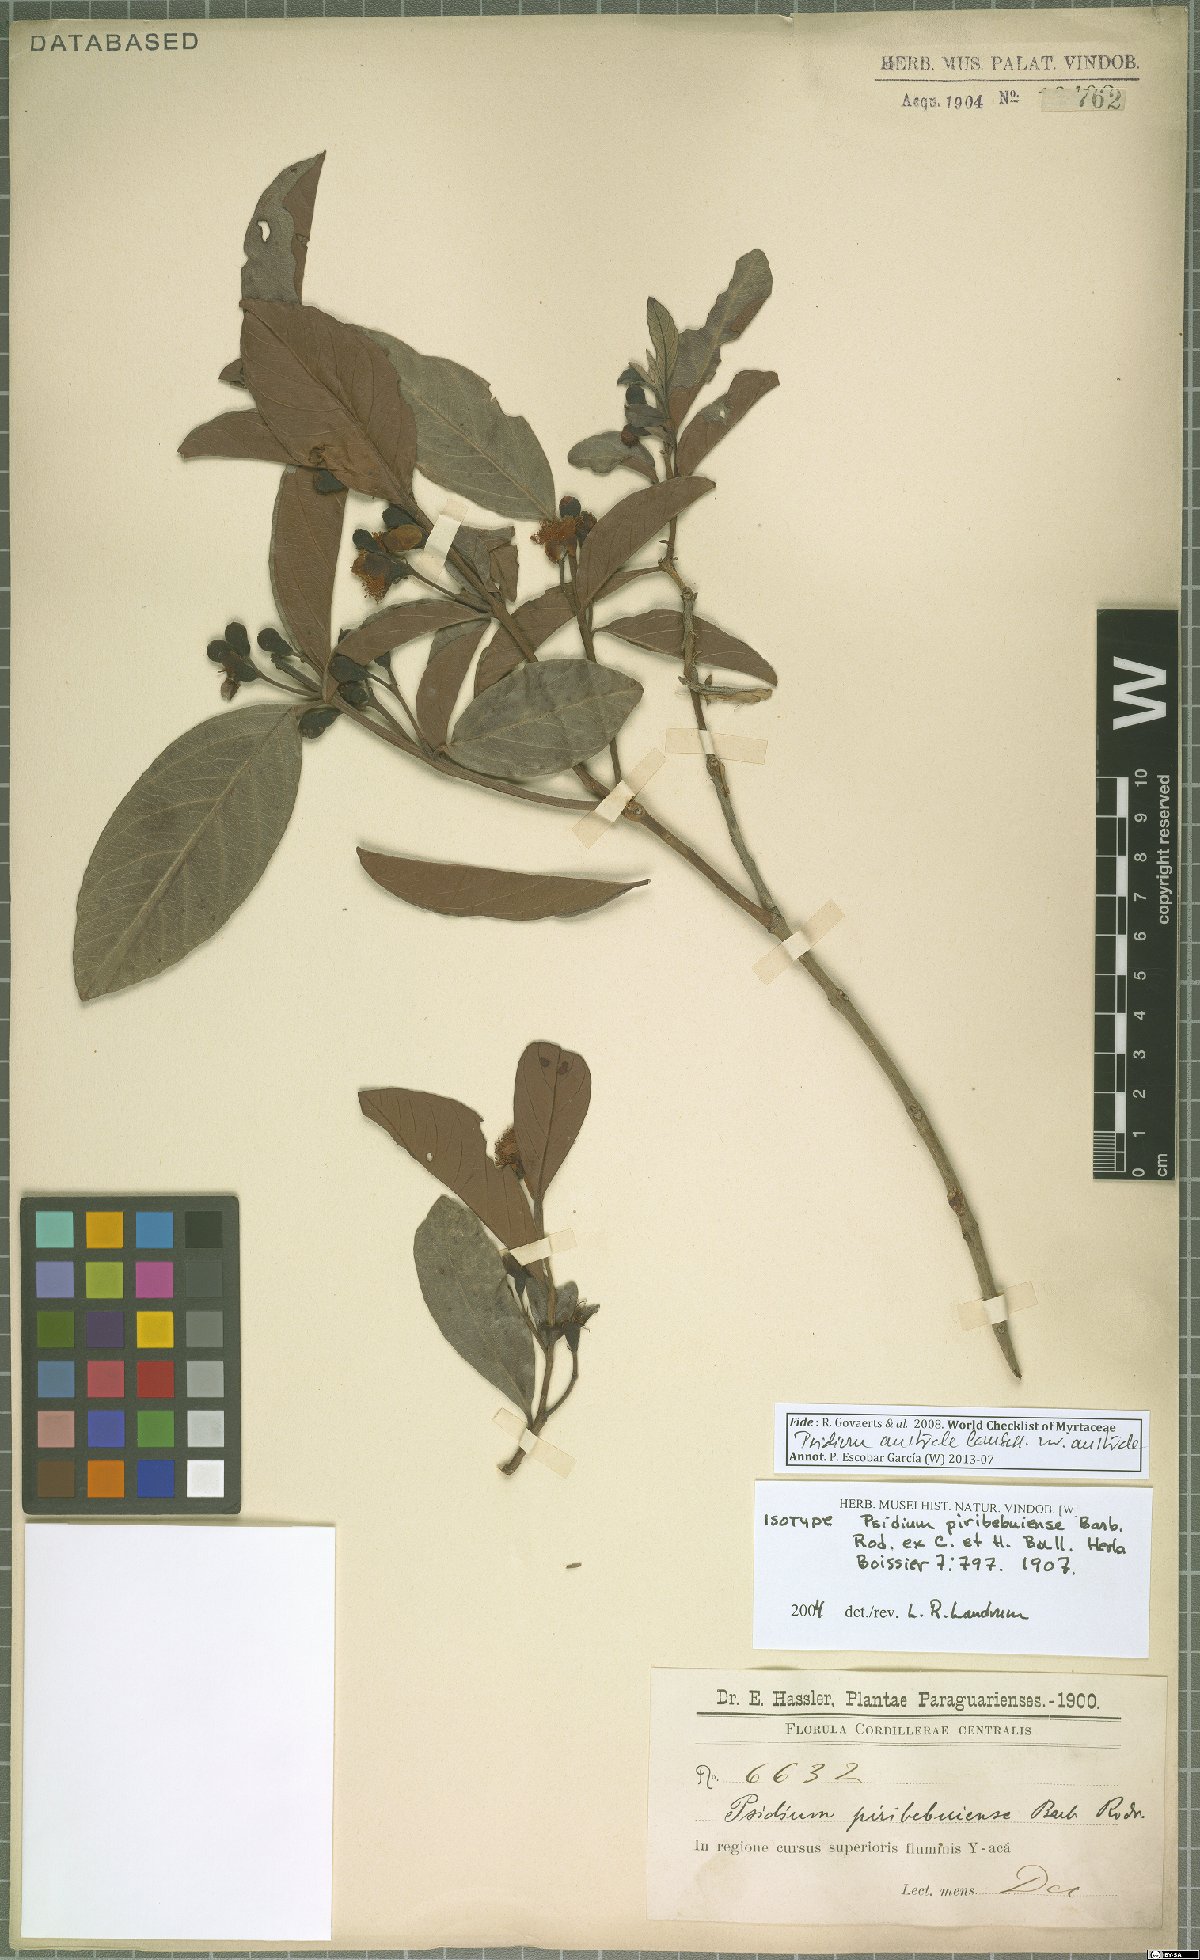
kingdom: Plantae
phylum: Tracheophyta
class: Magnoliopsida
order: Myrtales
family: Myrtaceae
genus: Psidium
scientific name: Psidium australe
